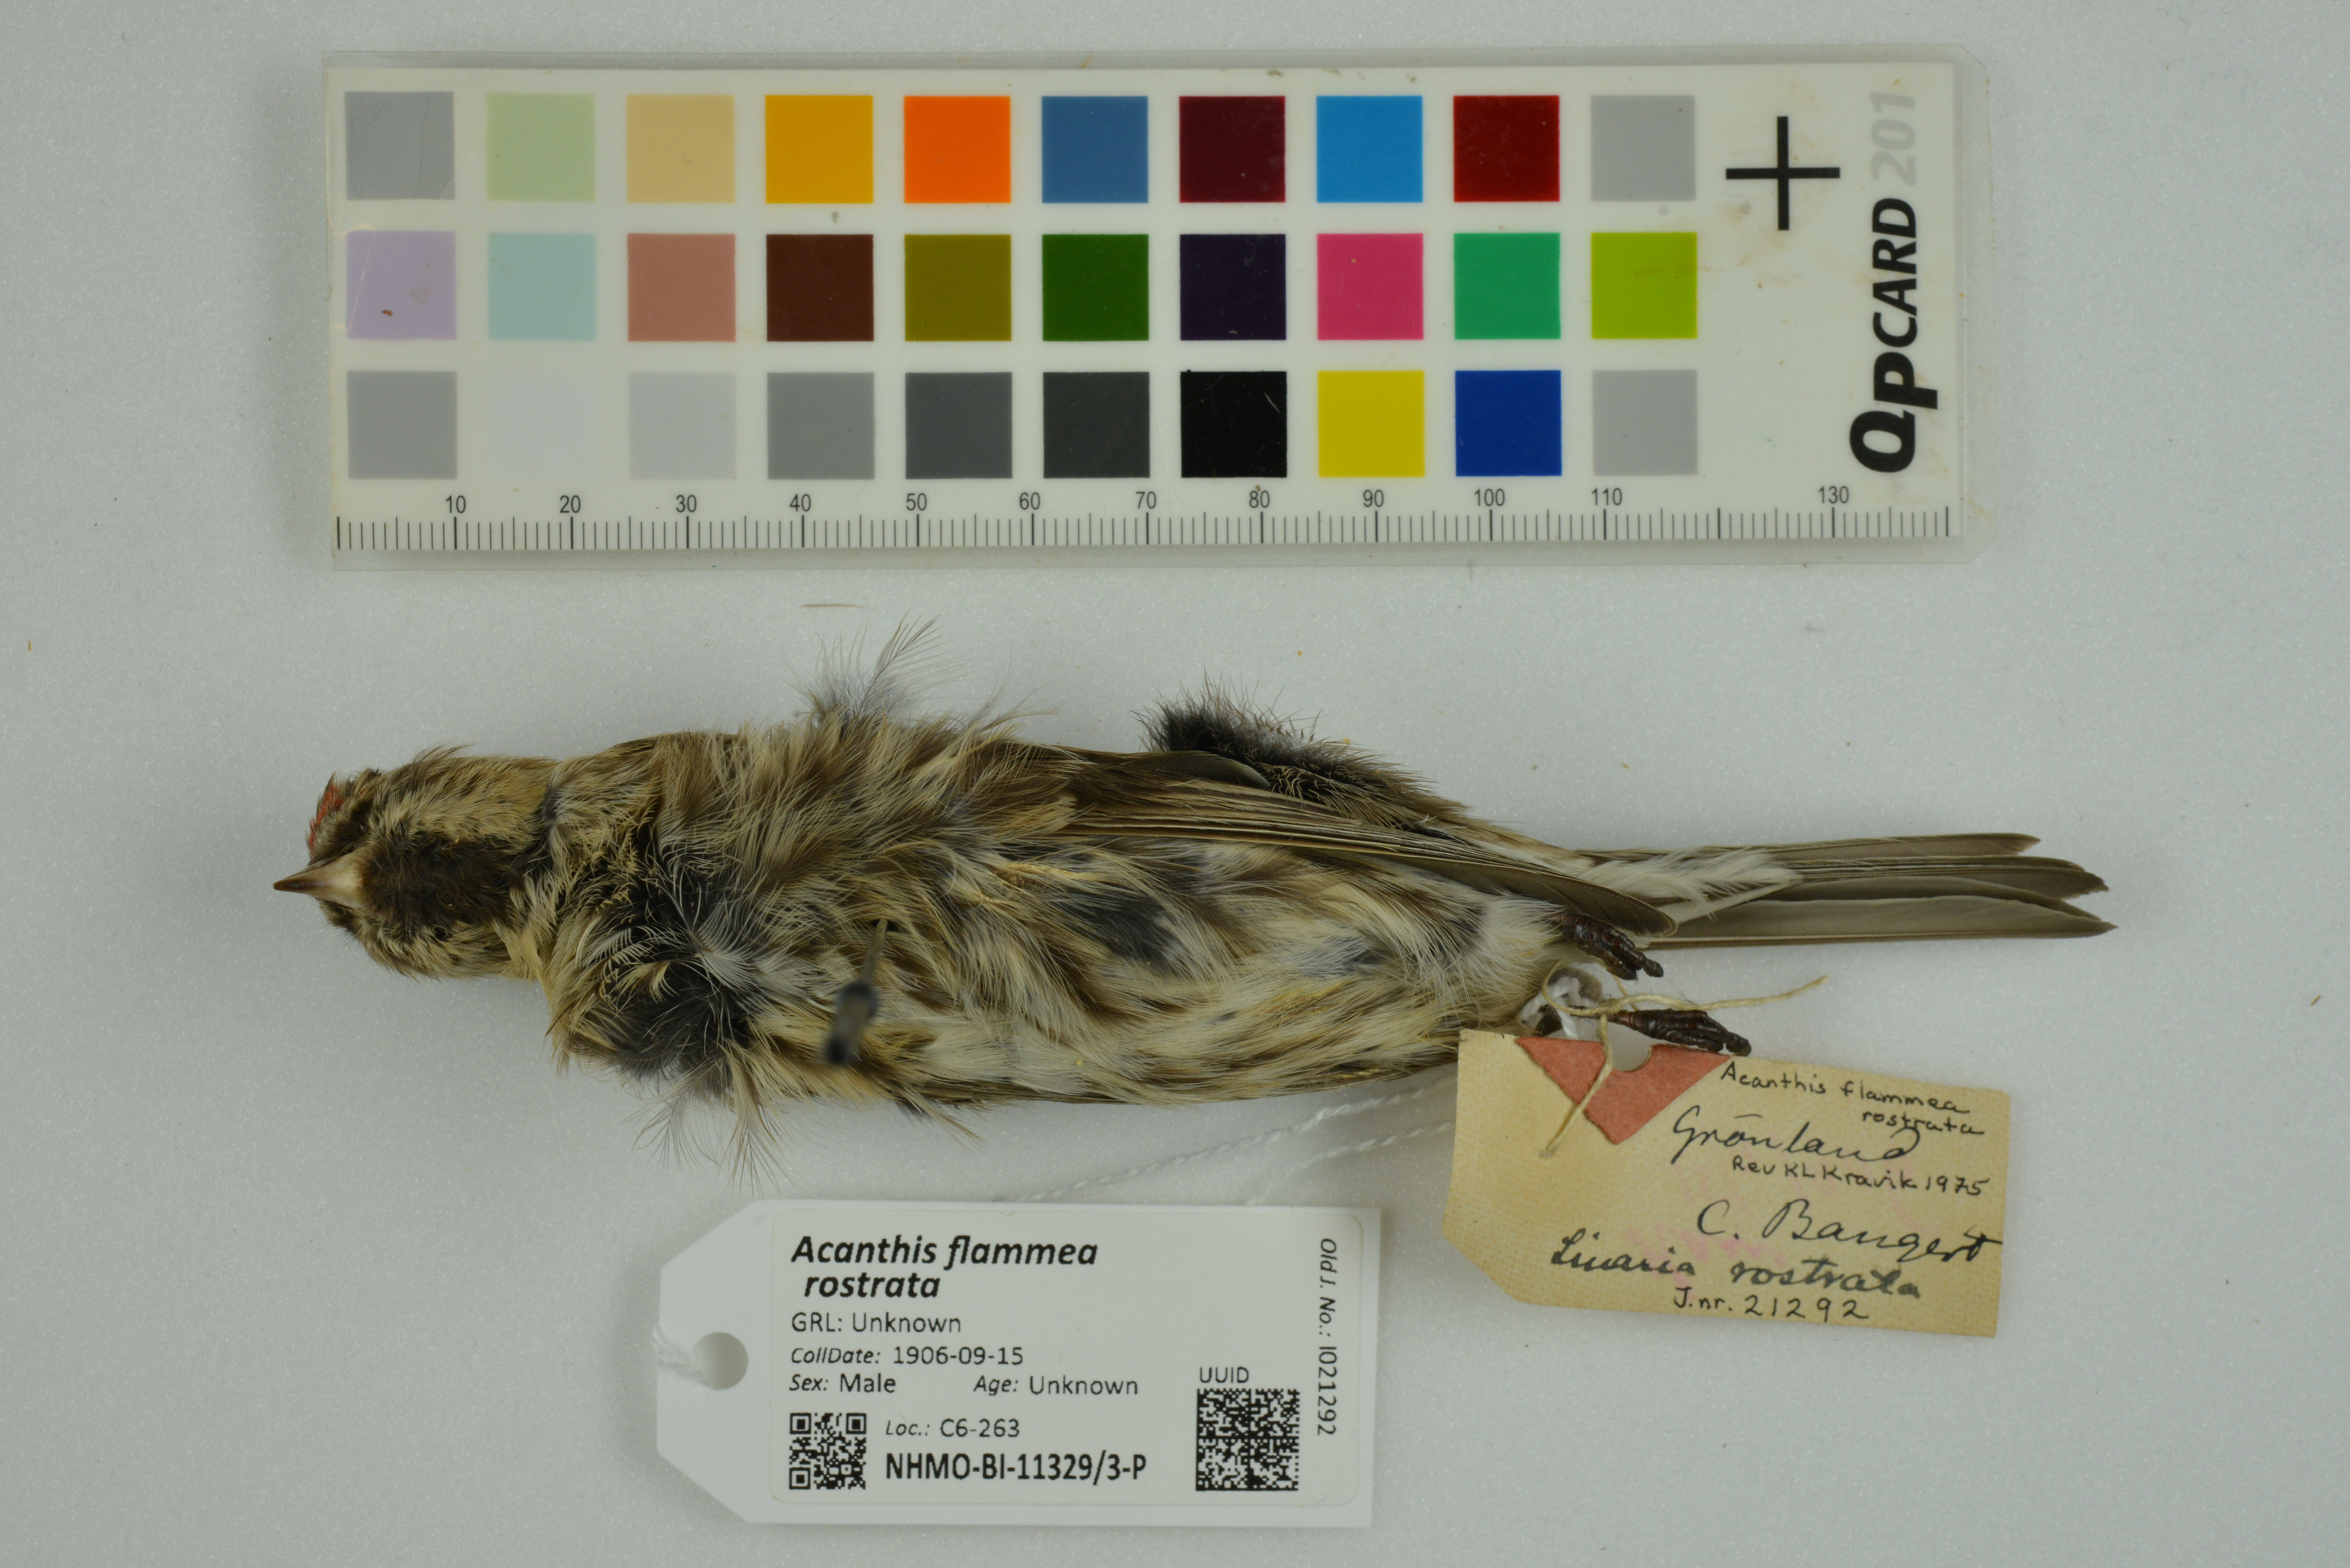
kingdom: Animalia
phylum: Chordata
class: Aves
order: Passeriformes
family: Fringillidae
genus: Acanthis
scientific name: Acanthis flammea
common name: Common redpoll
